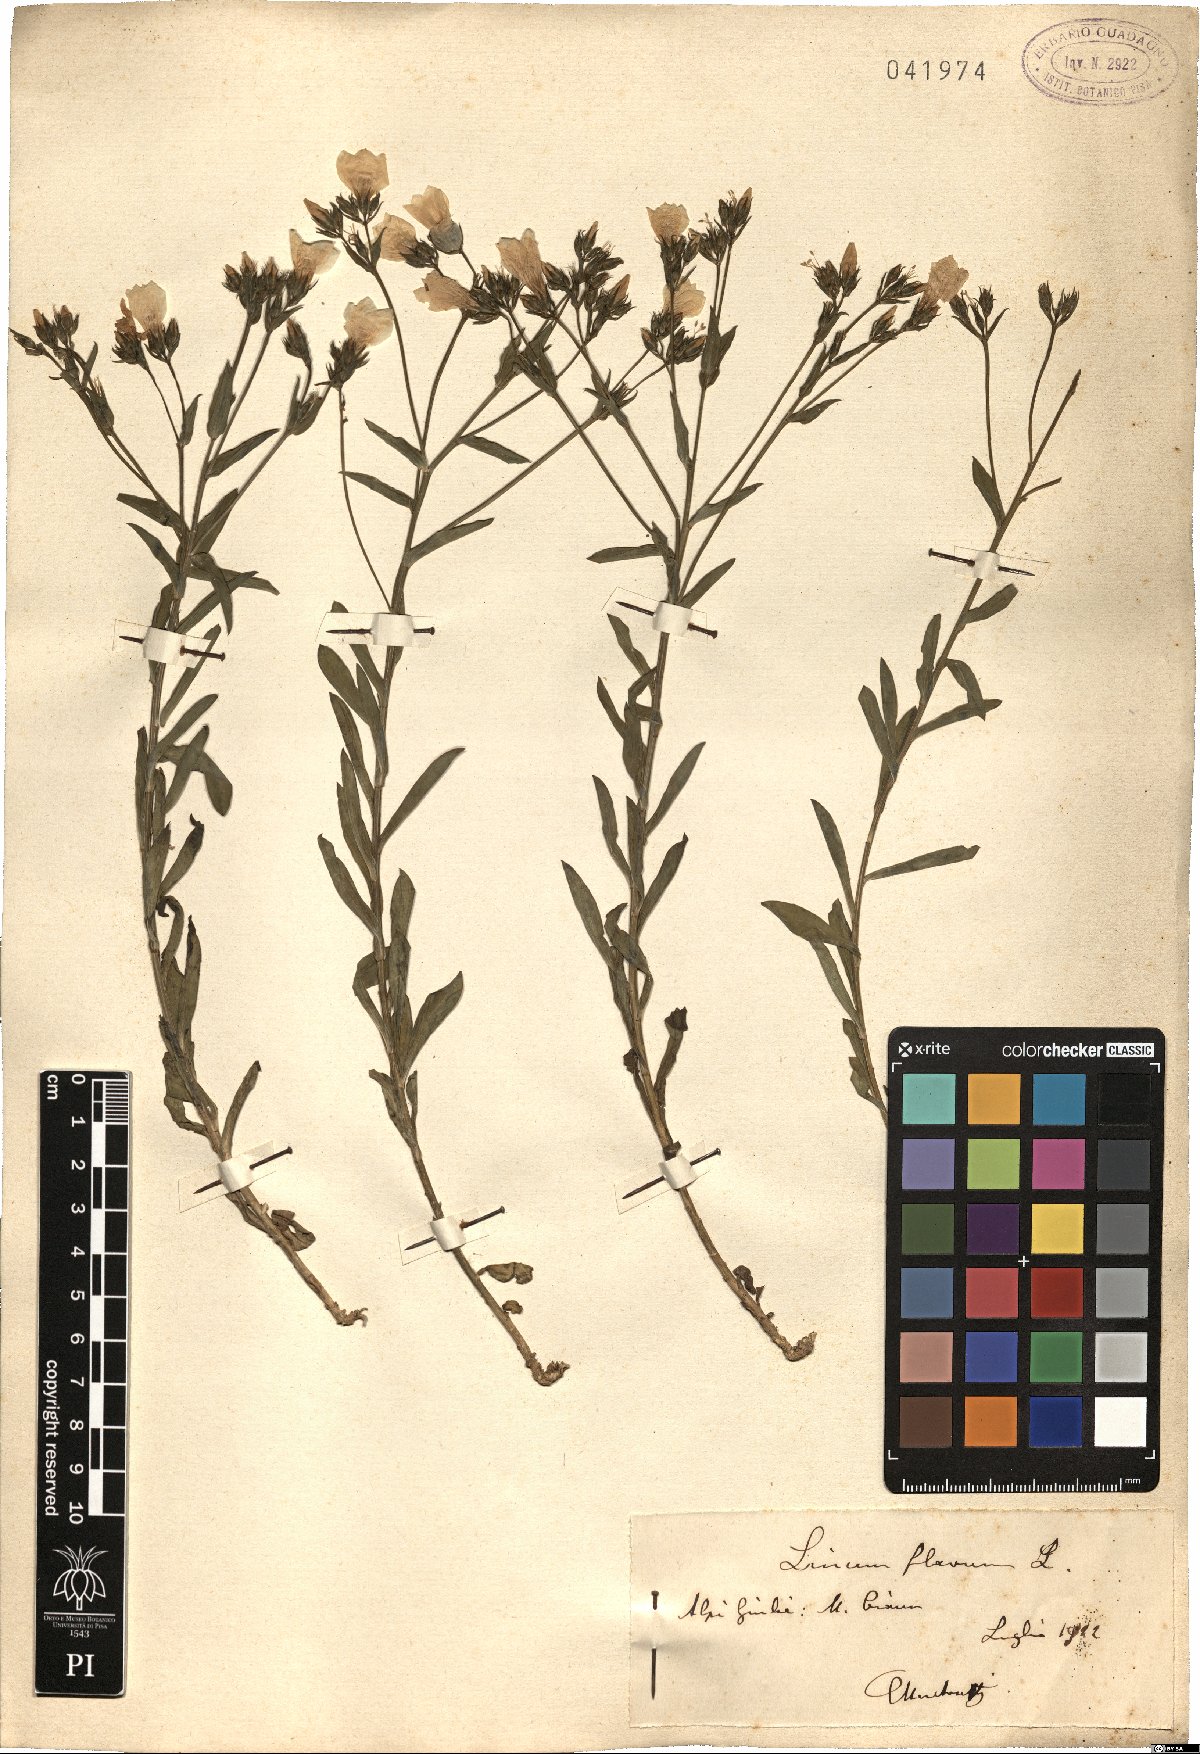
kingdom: Plantae
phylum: Tracheophyta
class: Magnoliopsida
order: Malpighiales
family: Linaceae
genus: Linum
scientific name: Linum flavum
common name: Yellow flax
